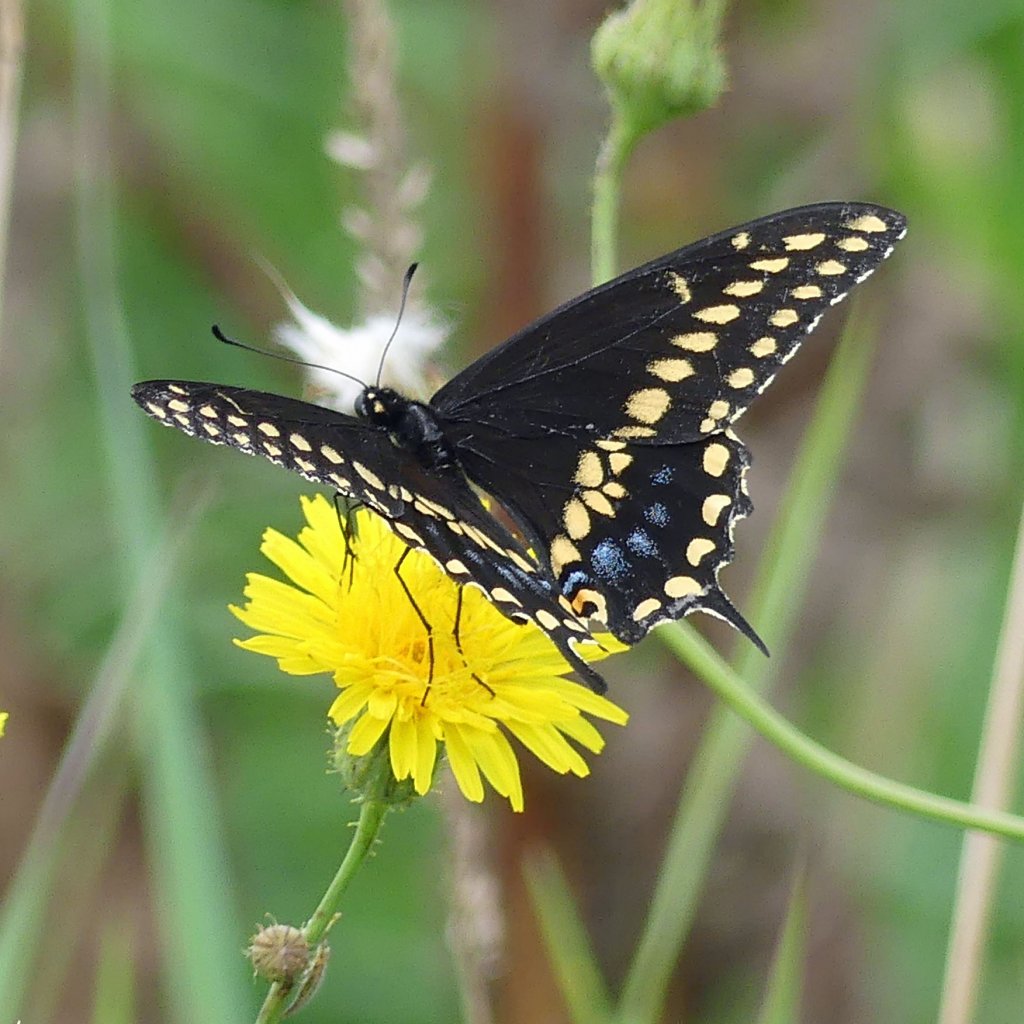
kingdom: Animalia
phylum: Arthropoda
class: Insecta
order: Lepidoptera
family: Papilionidae
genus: Papilio
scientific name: Papilio polyxenes
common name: Black Swallowtail
